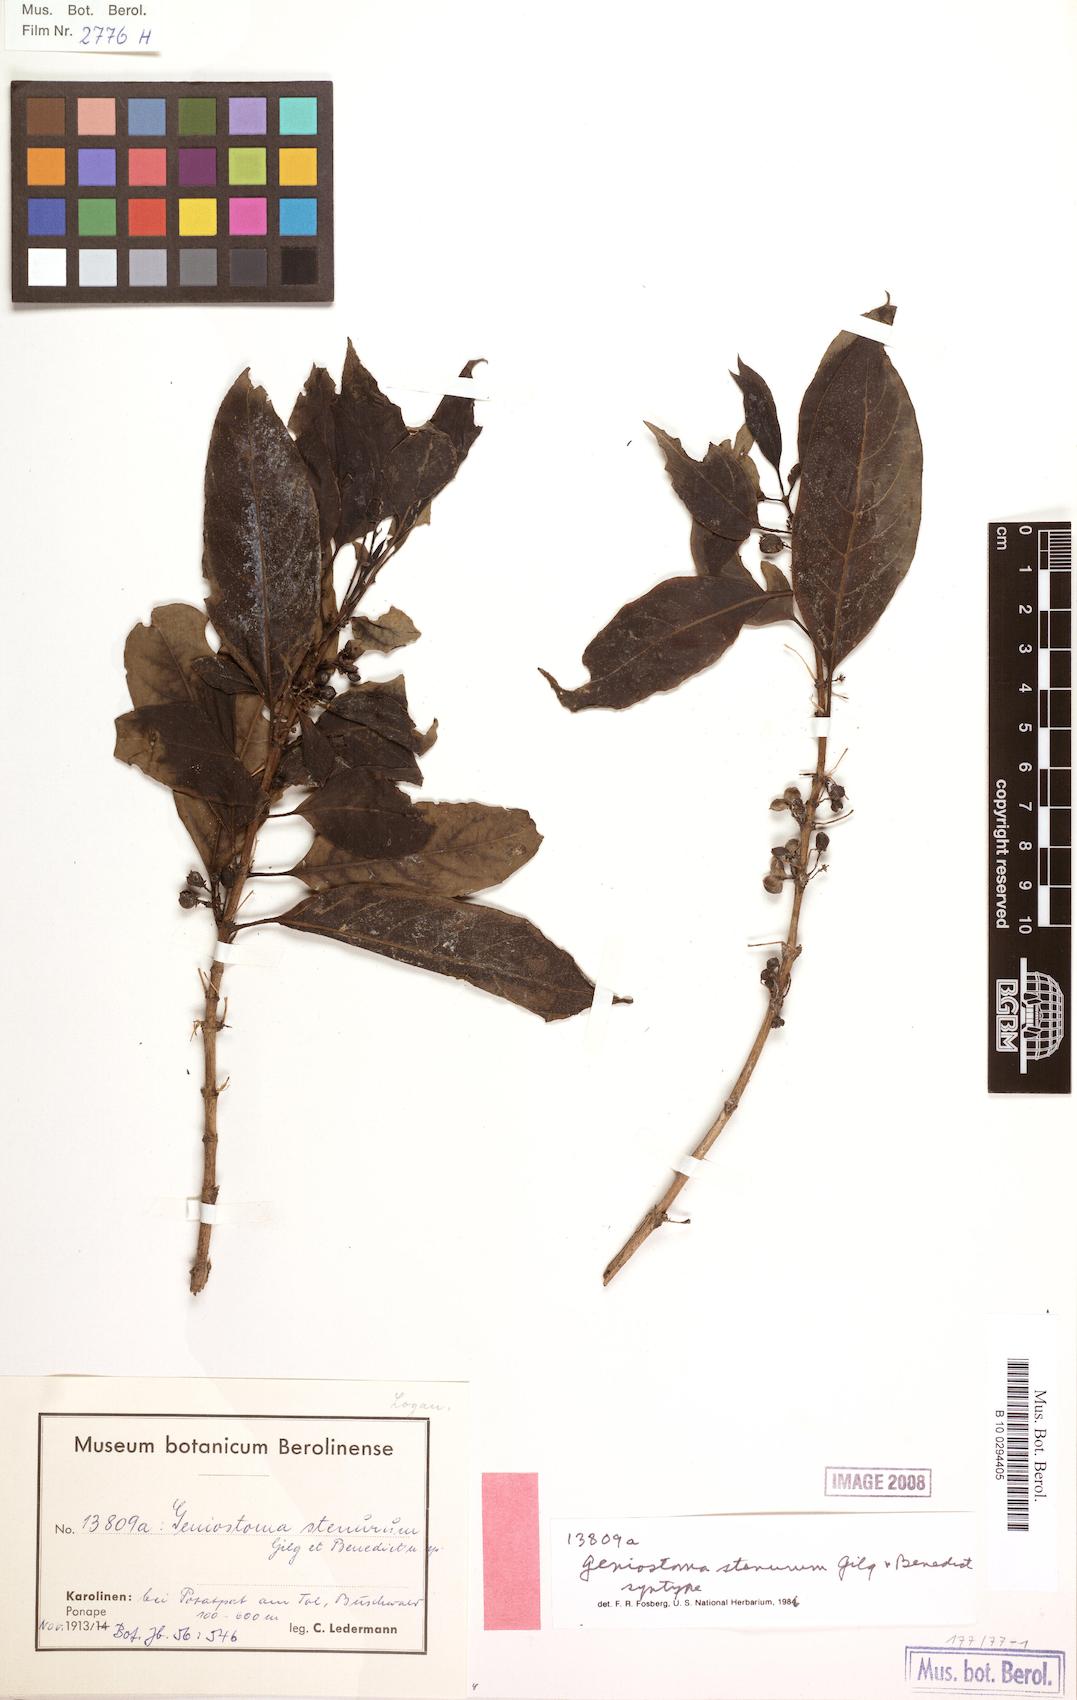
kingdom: Plantae
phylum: Tracheophyta
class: Magnoliopsida
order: Gentianales
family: Loganiaceae
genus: Geniostoma
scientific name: Geniostoma rupestre
